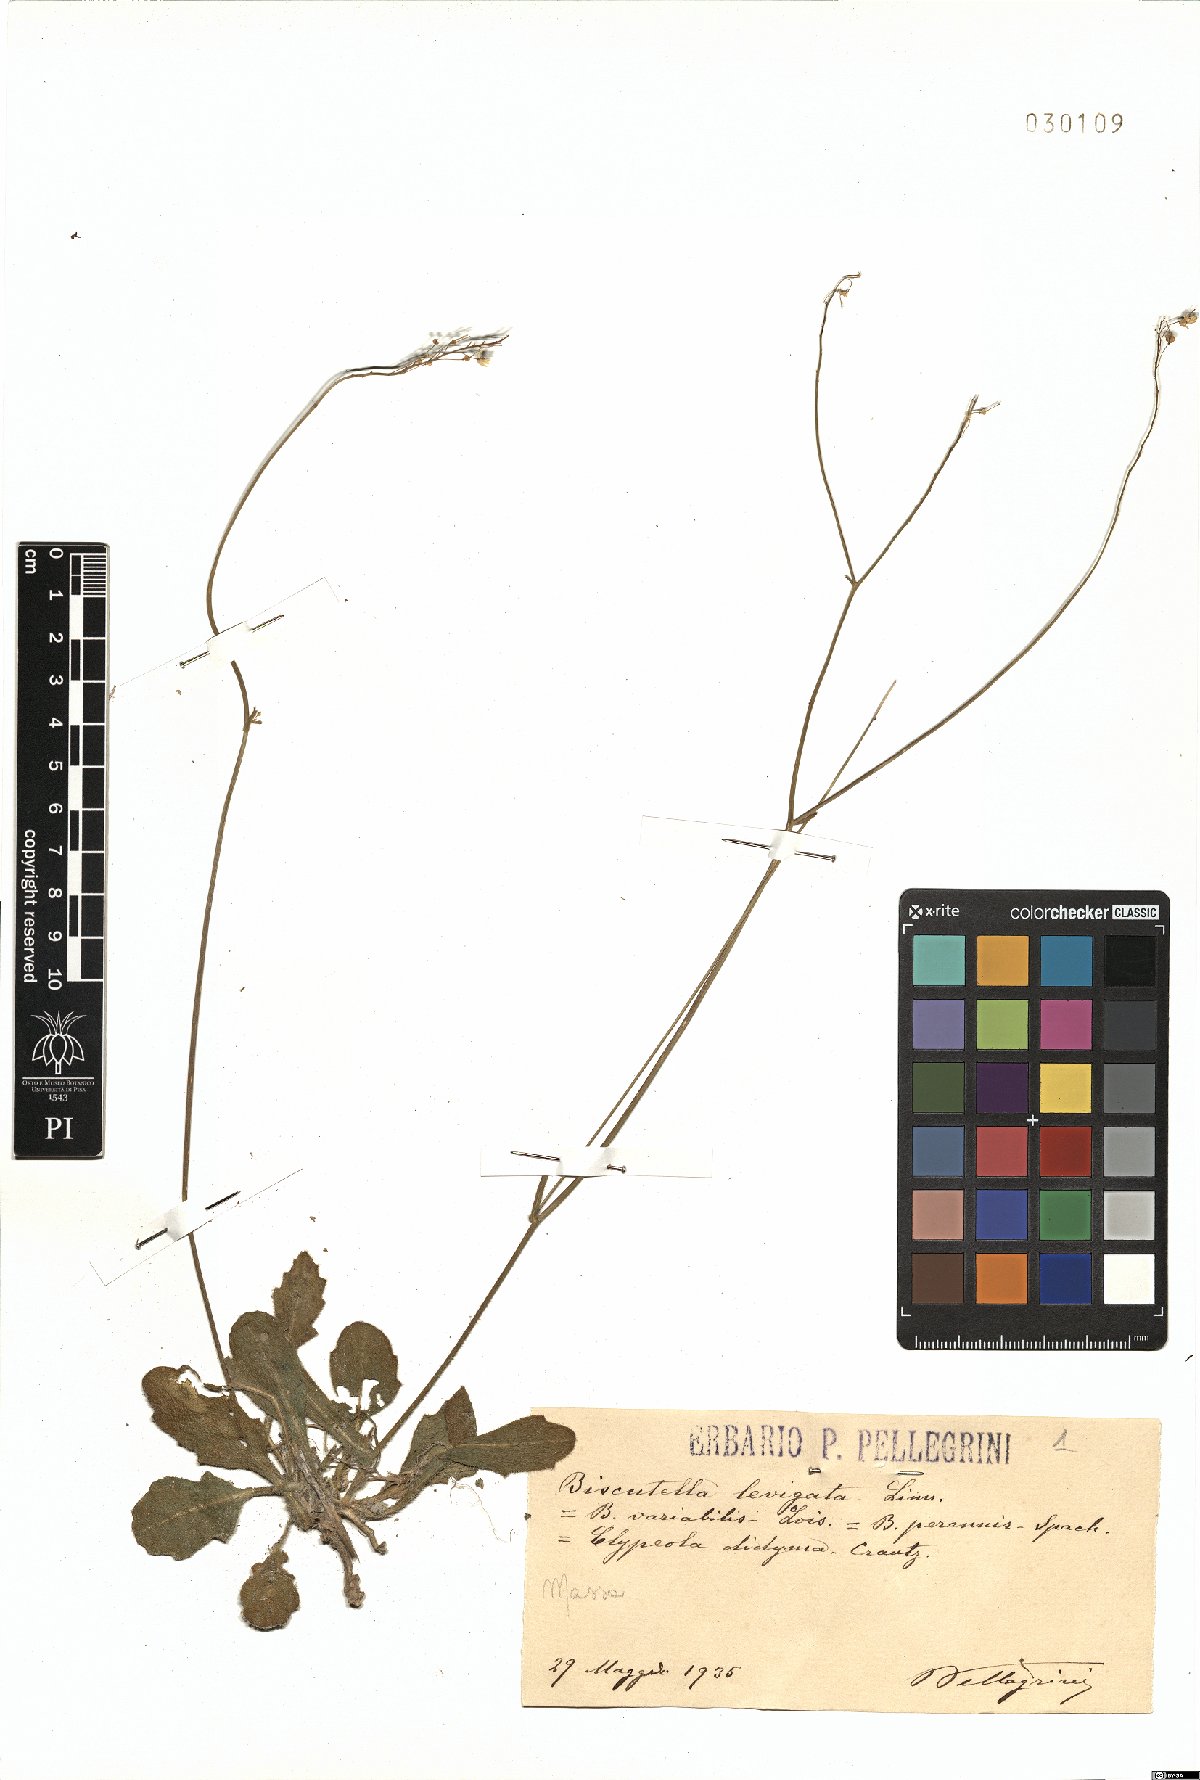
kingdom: Plantae
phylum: Tracheophyta
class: Magnoliopsida
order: Brassicales
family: Brassicaceae
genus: Biscutella
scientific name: Biscutella laevigata
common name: Buckler mustard
